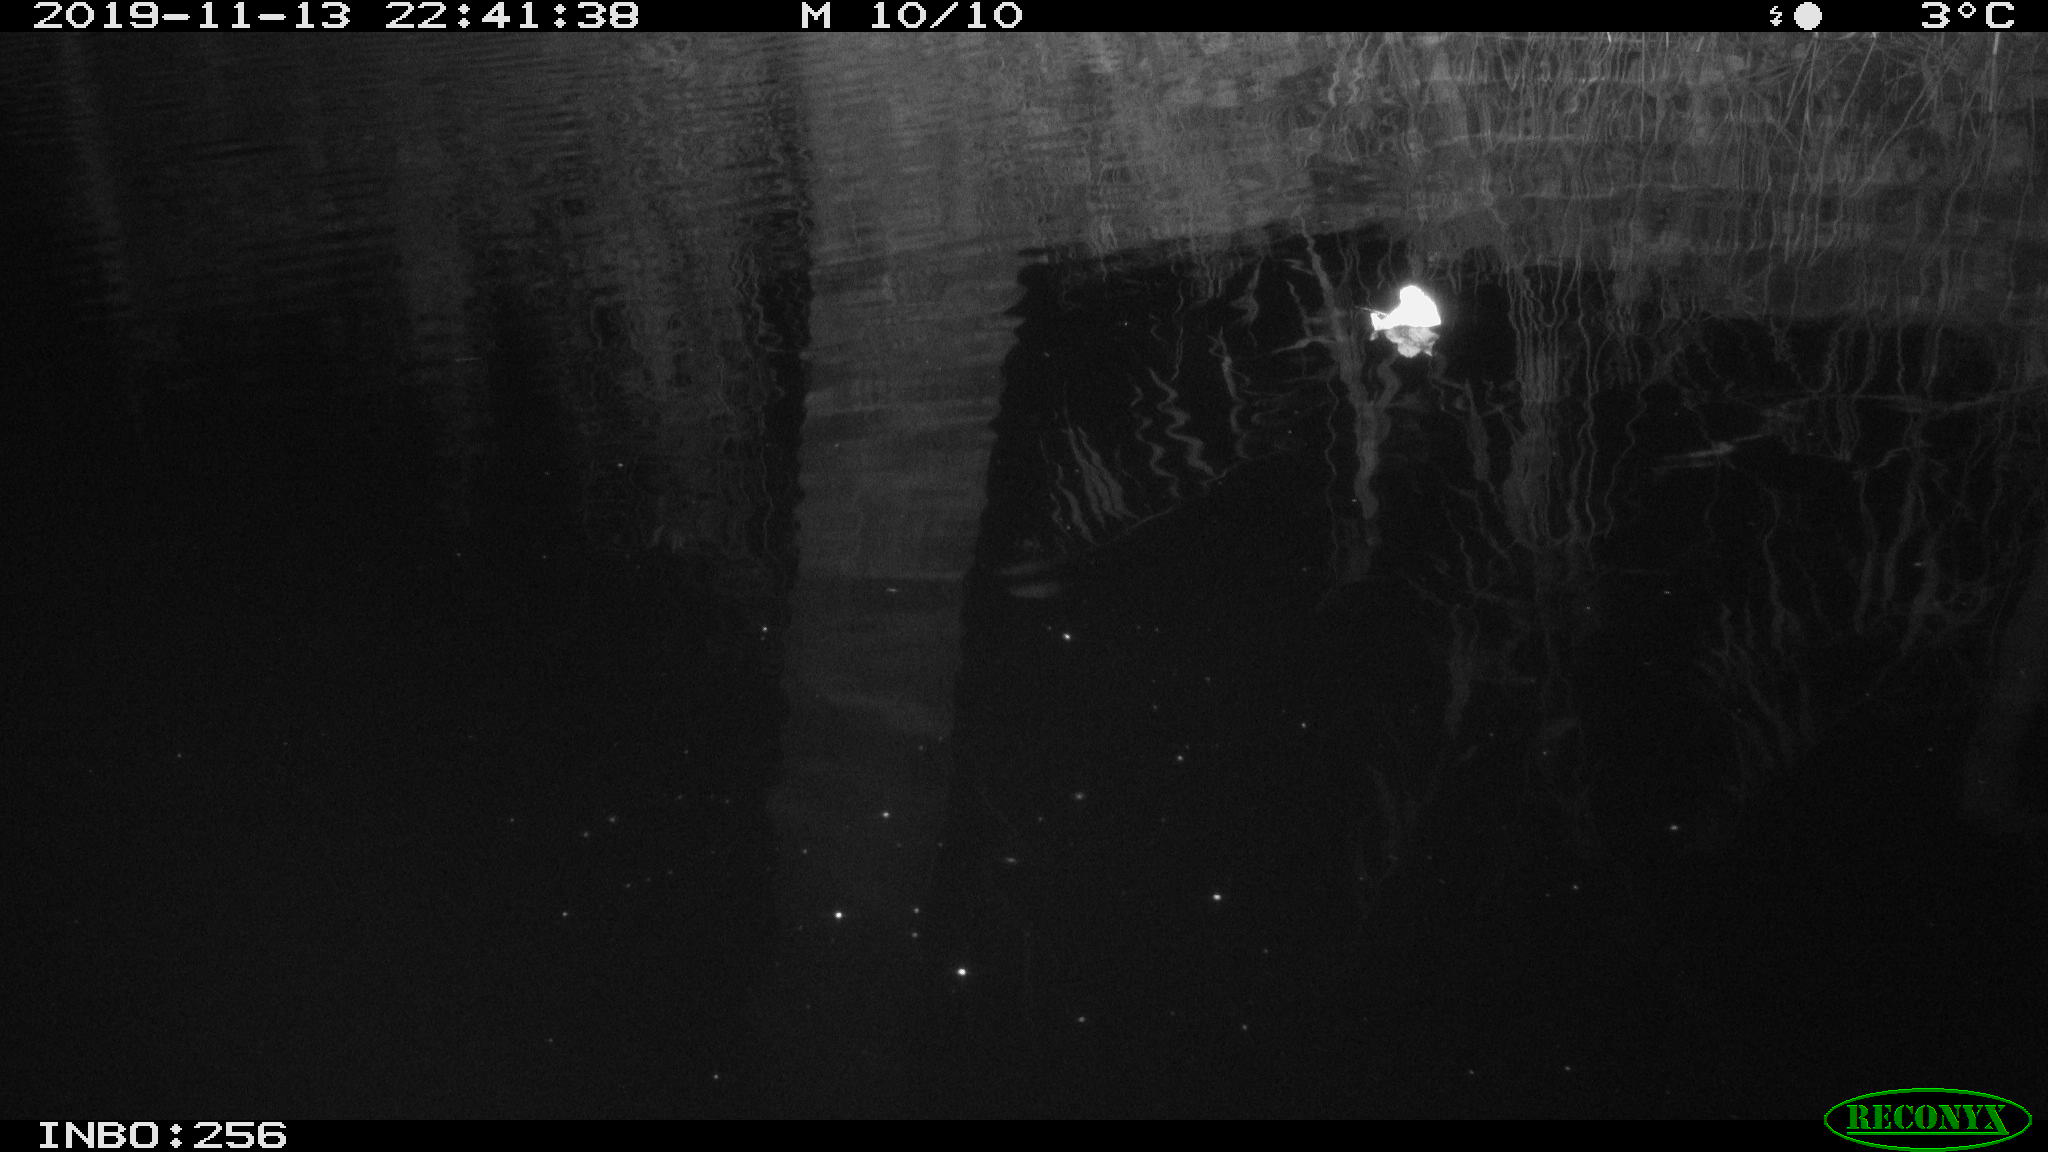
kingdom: Animalia
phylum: Chordata
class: Mammalia
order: Rodentia
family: Muridae
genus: Rattus
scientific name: Rattus norvegicus
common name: Brown rat
